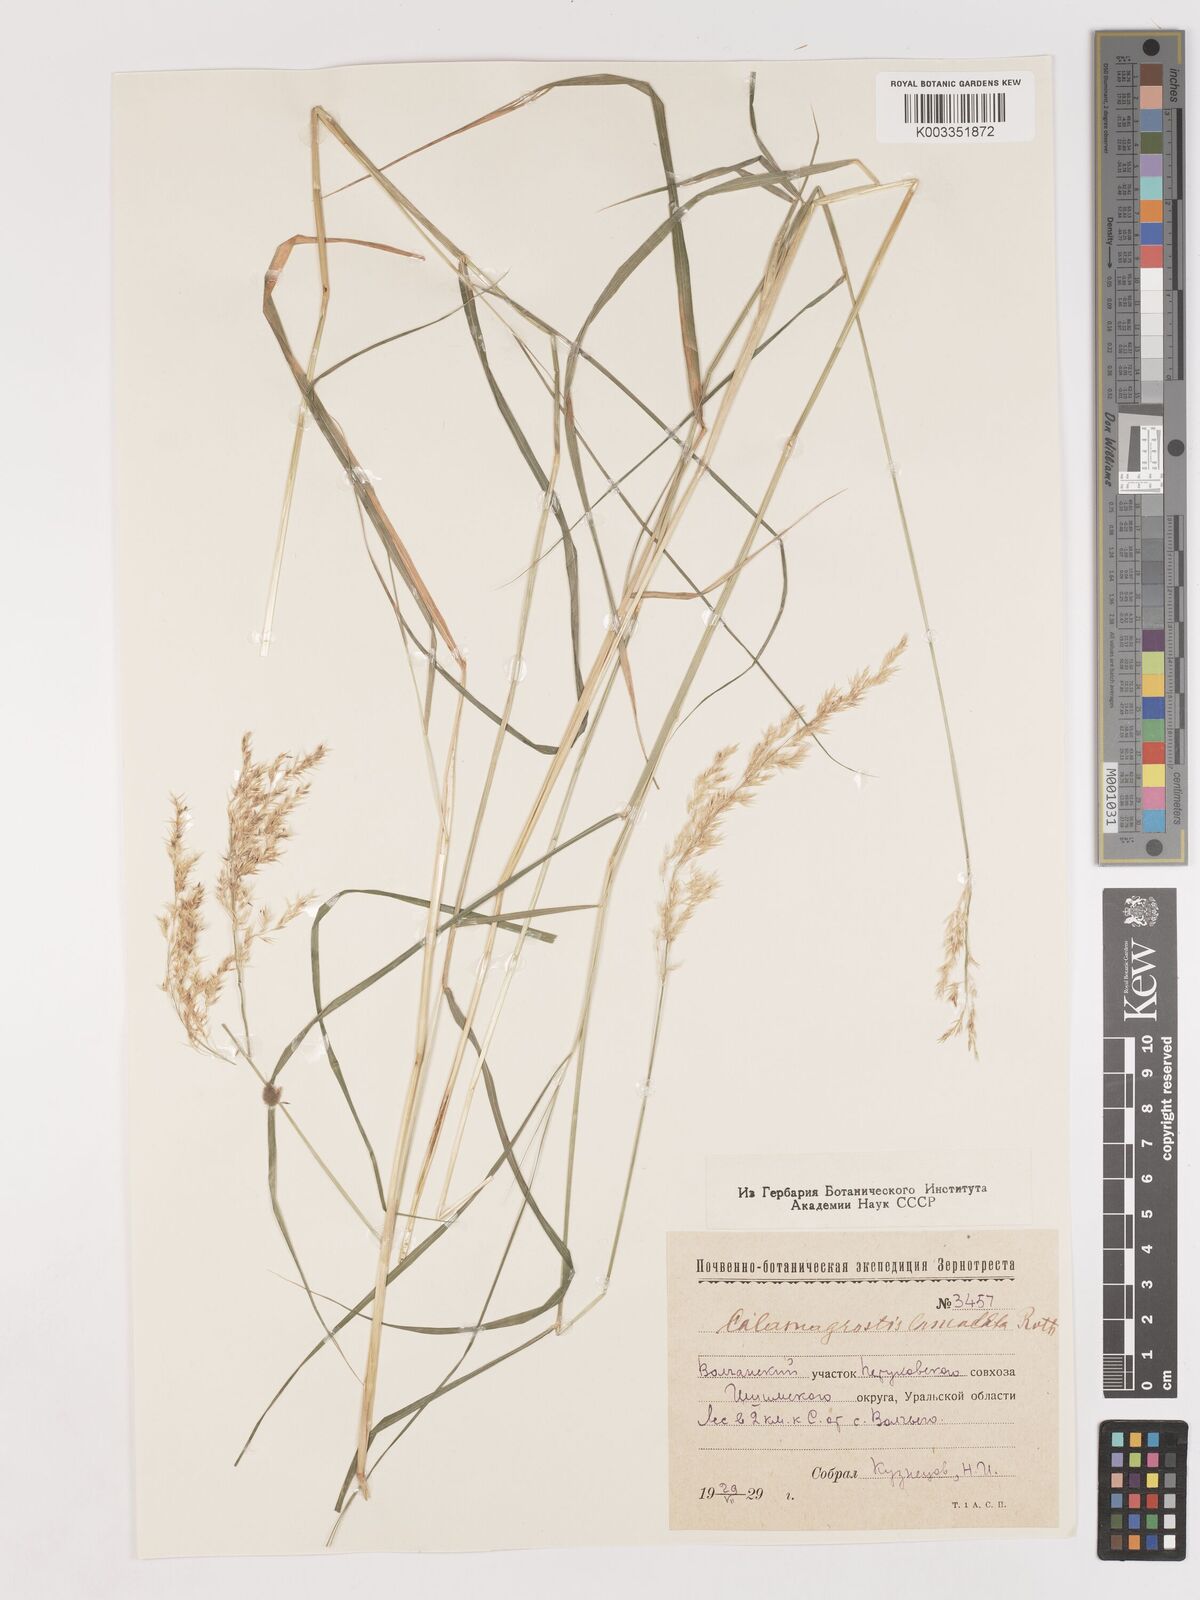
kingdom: Plantae
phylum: Tracheophyta
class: Liliopsida
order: Poales
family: Poaceae
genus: Calamagrostis
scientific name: Calamagrostis canescens
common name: Purple small-reed
